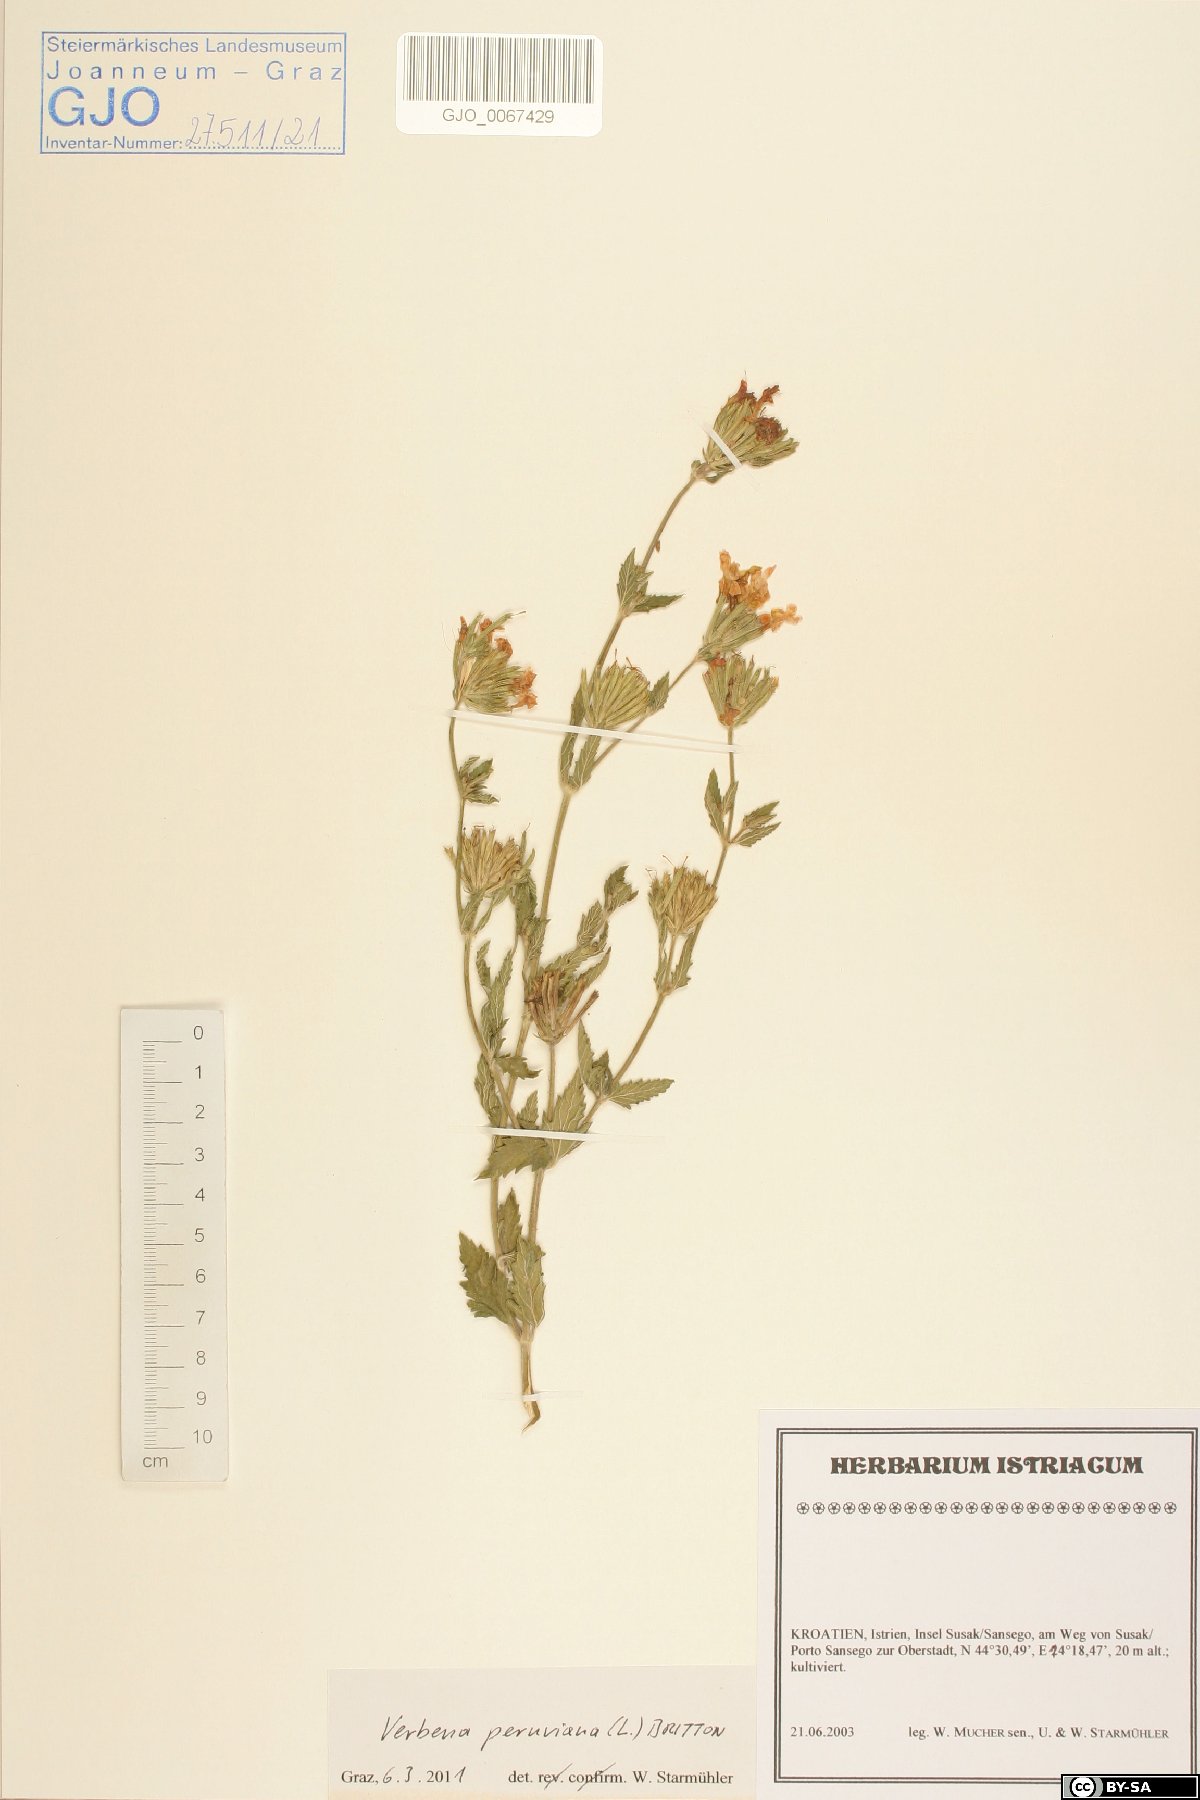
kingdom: Plantae
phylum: Tracheophyta
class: Magnoliopsida
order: Lamiales
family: Verbenaceae
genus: Verbena
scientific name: Verbena peruviana
